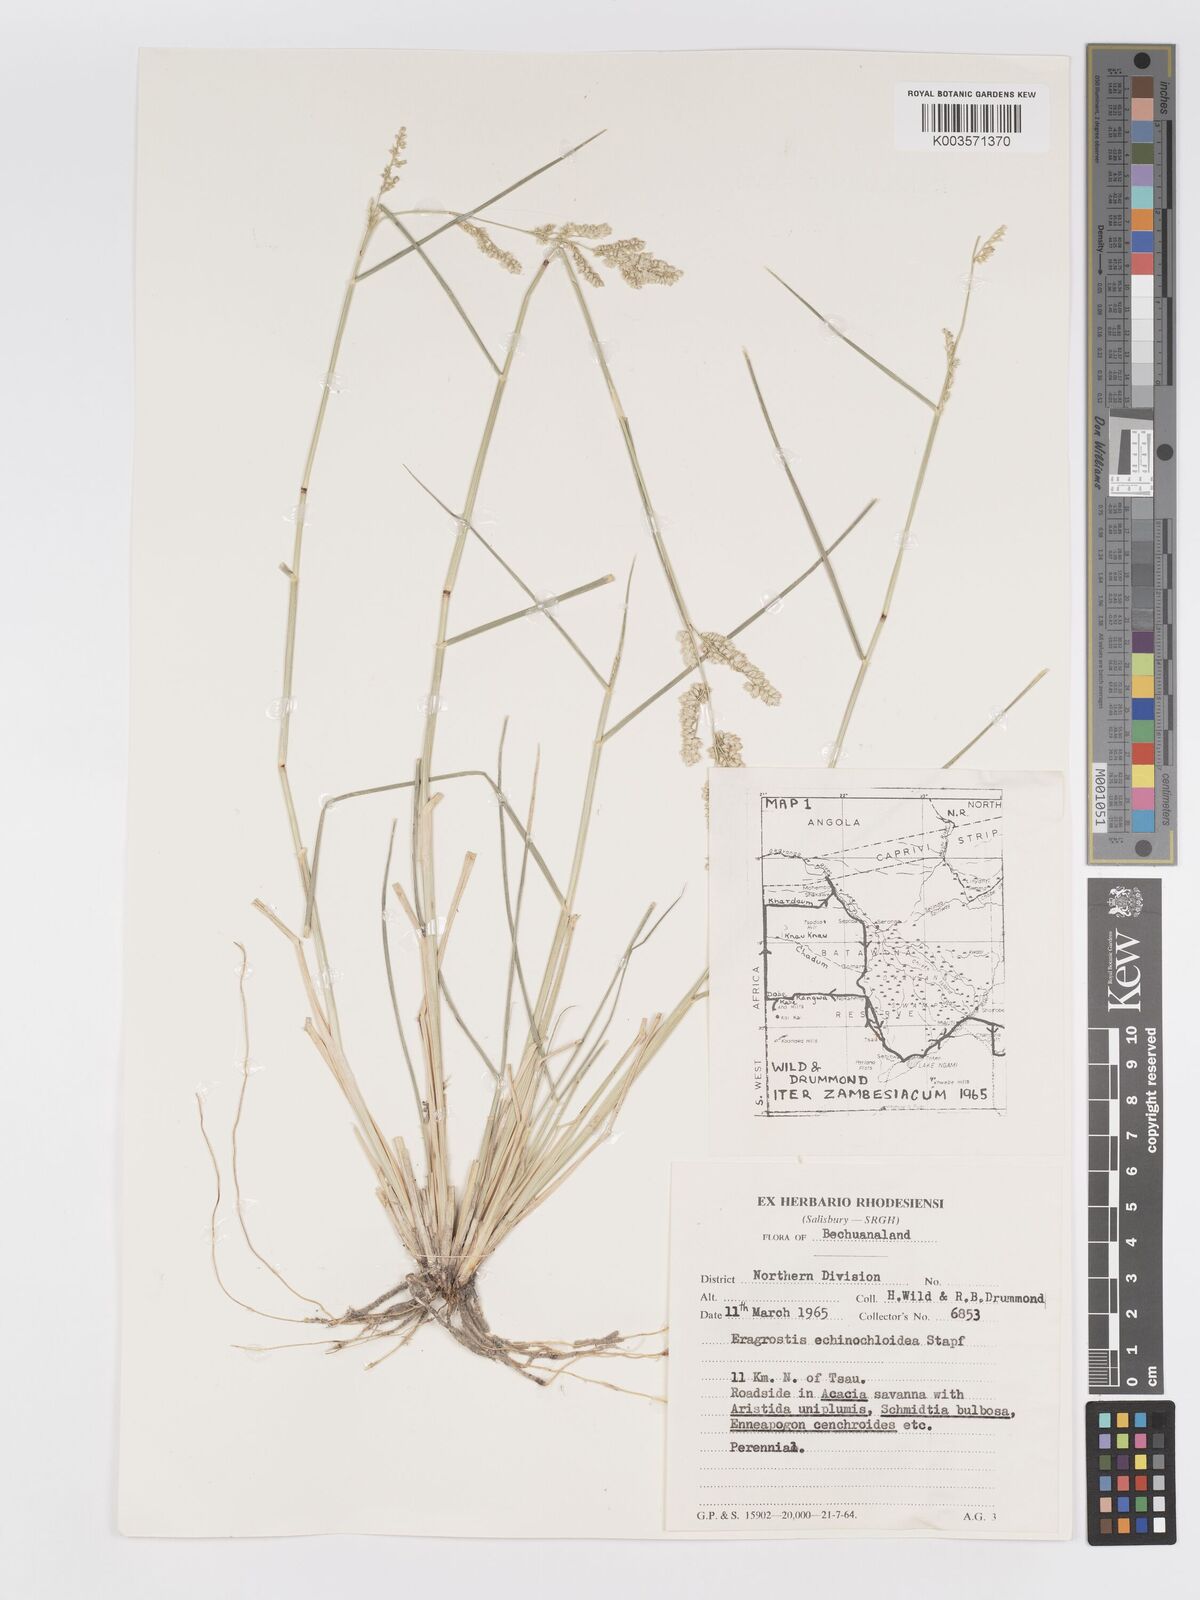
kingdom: Plantae
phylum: Tracheophyta
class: Liliopsida
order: Poales
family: Poaceae
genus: Eragrostis
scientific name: Eragrostis echinochloidea
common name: African lovegrass
